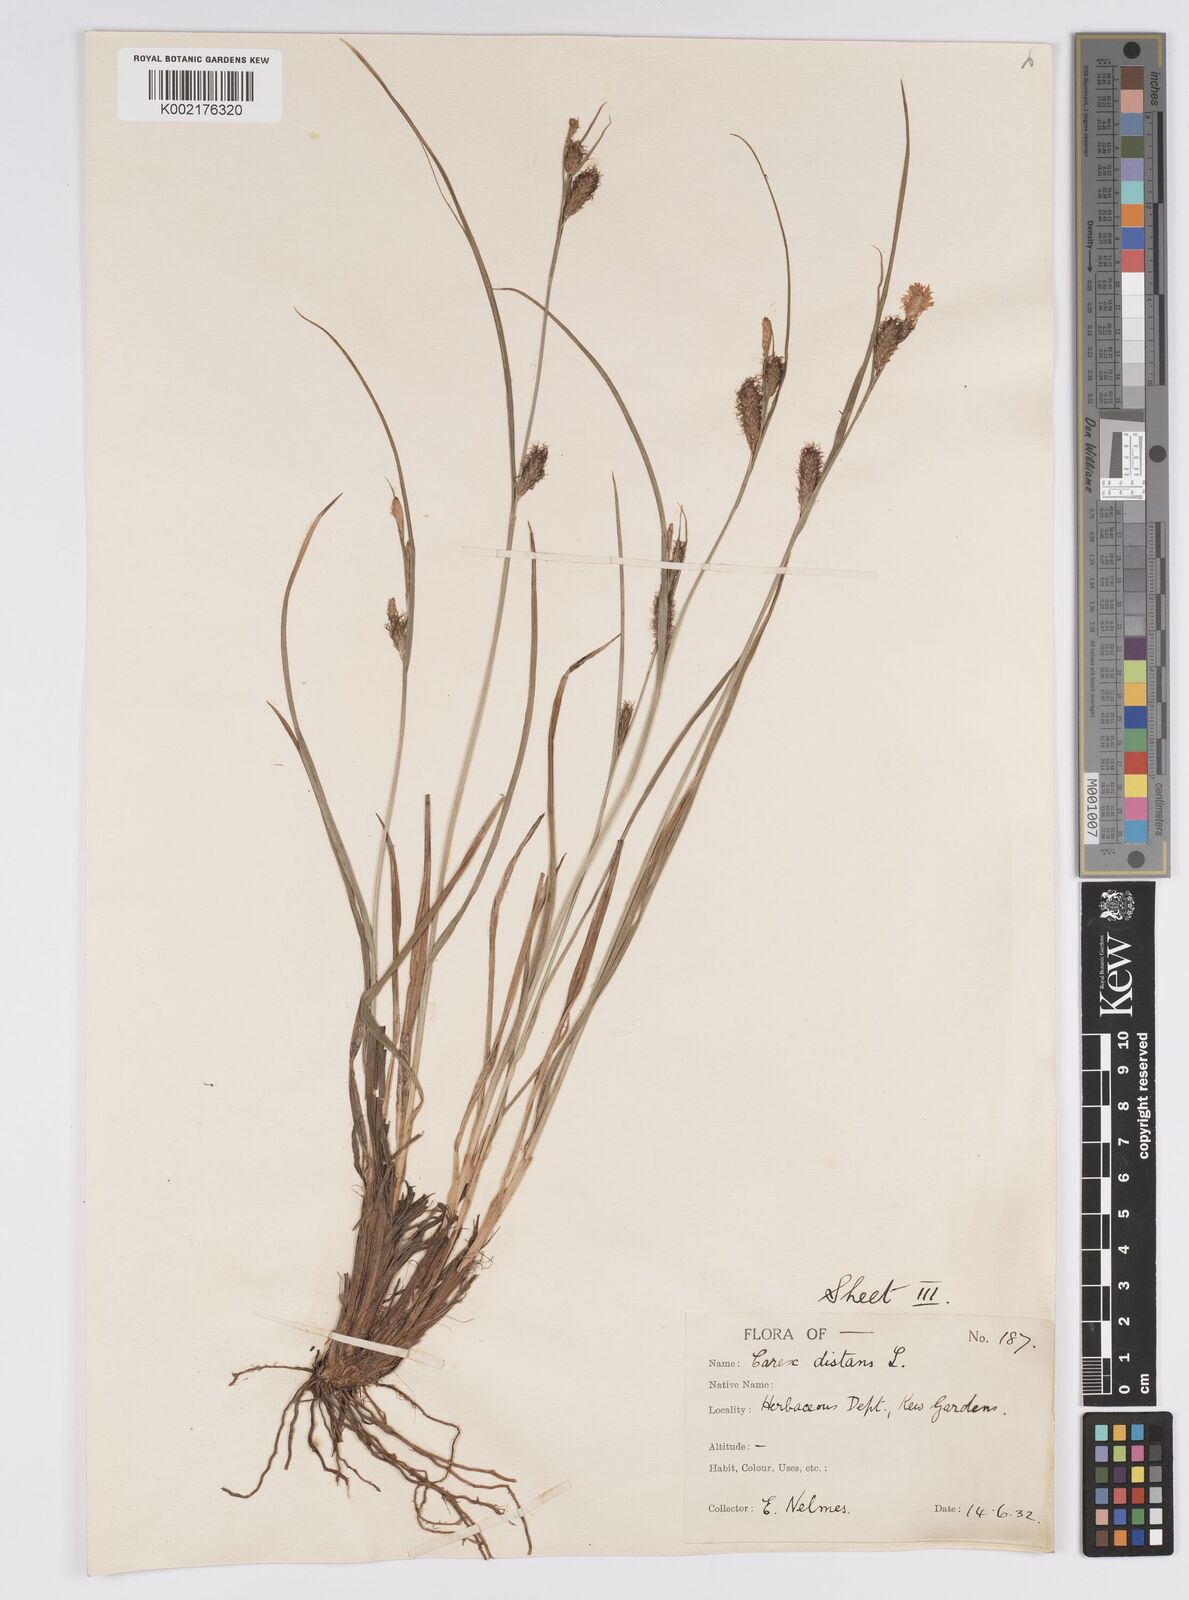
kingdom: Plantae
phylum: Tracheophyta
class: Liliopsida
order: Poales
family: Cyperaceae
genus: Carex
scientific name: Carex distans
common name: Distant sedge
